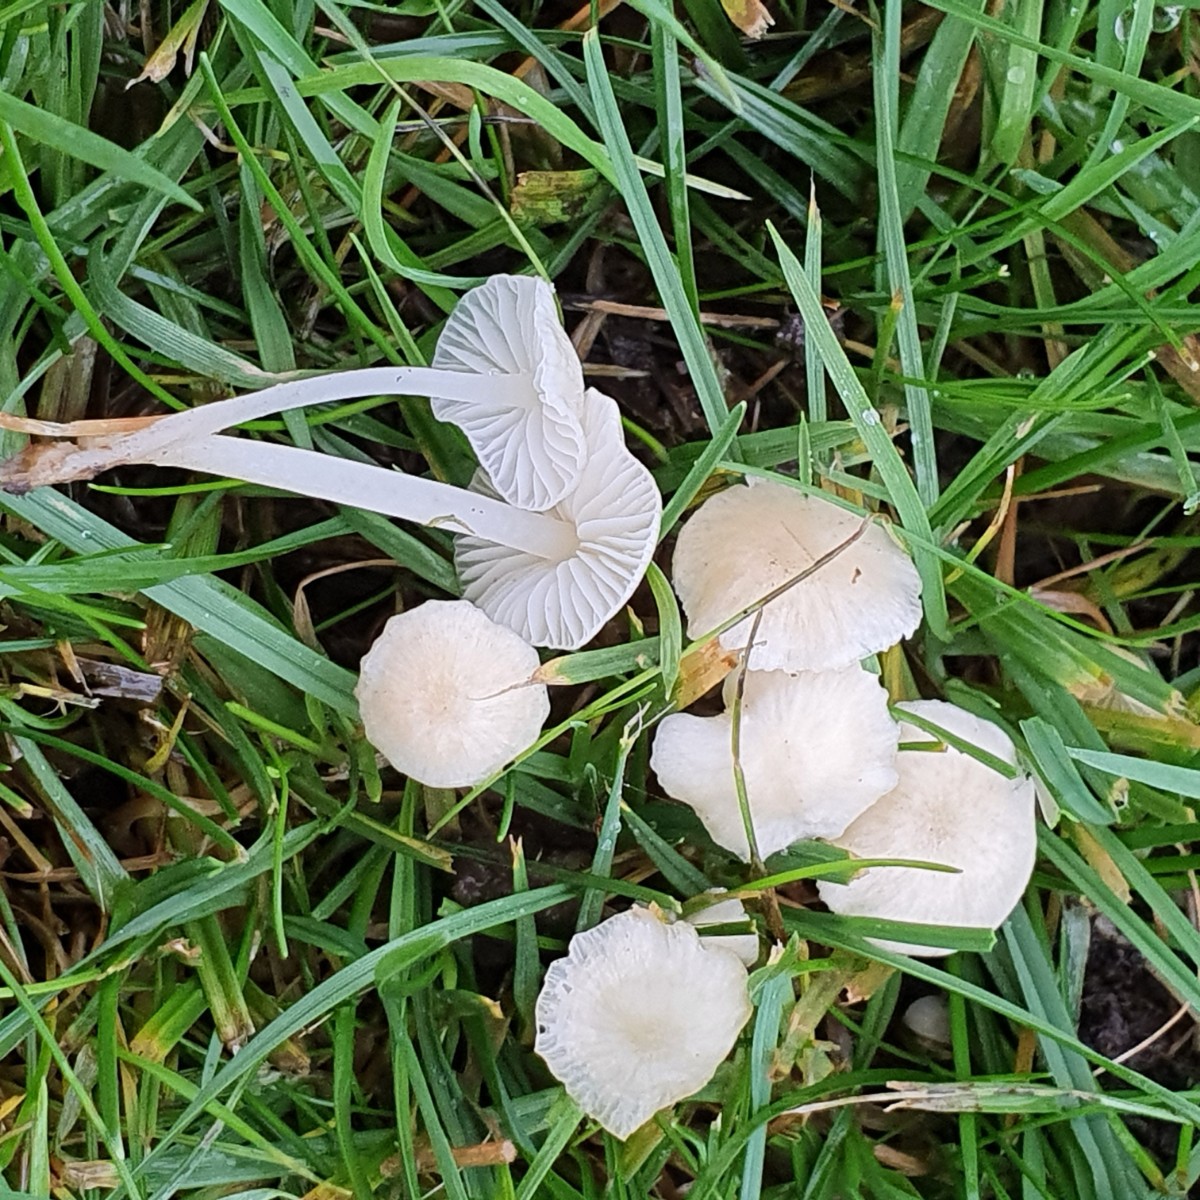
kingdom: Fungi
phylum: Basidiomycota
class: Agaricomycetes
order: Agaricales
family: Mycenaceae
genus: Atheniella
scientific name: Atheniella flavoalba
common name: gulhvid huesvamp
